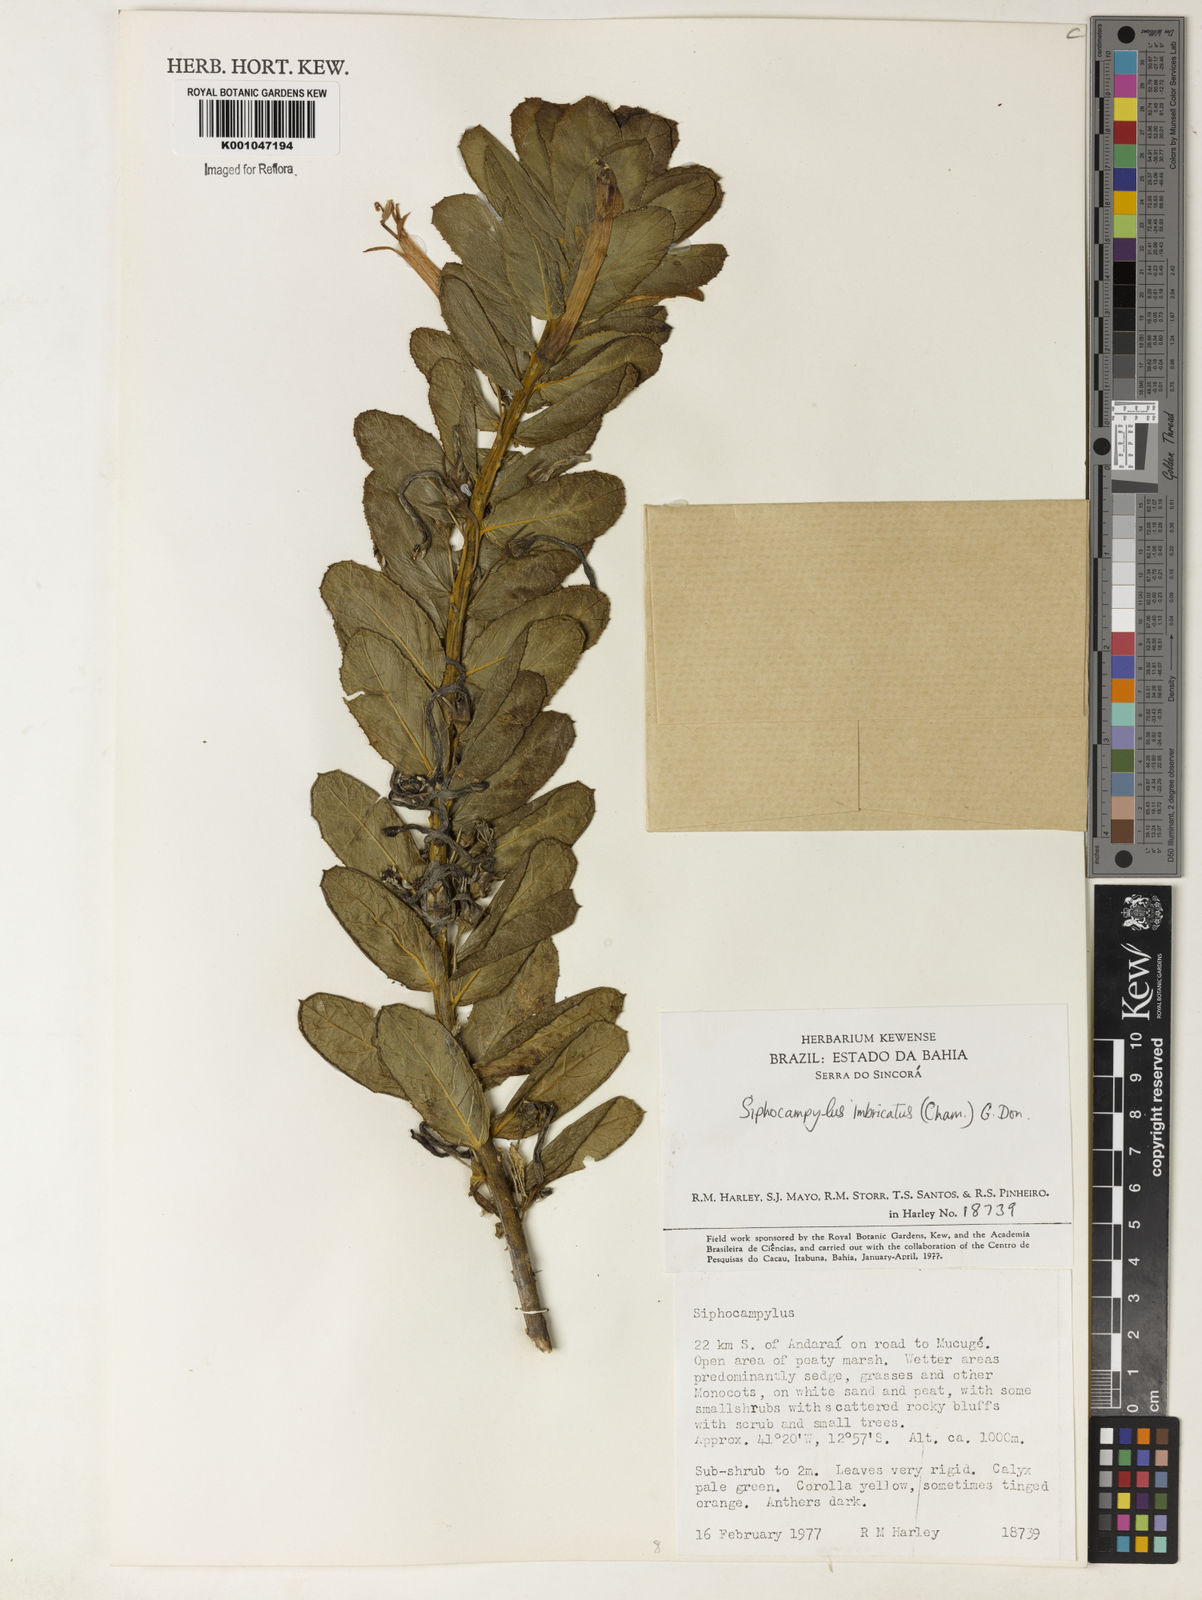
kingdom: Plantae
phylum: Tracheophyta
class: Magnoliopsida
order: Asterales
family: Campanulaceae
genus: Siphocampylus
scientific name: Siphocampylus imbricatus
